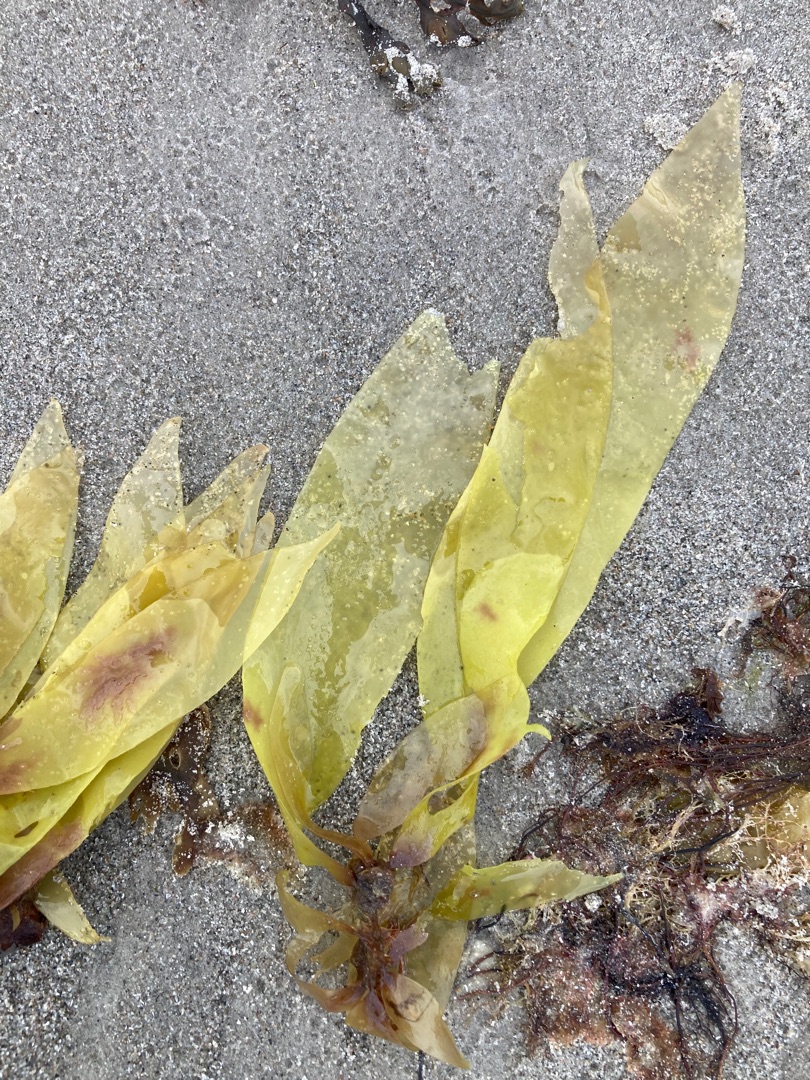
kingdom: Plantae
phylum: Rhodophyta
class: Florideophyceae
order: Palmariales
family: Palmariaceae
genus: Palmaria
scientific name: Palmaria palmata
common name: Søl
